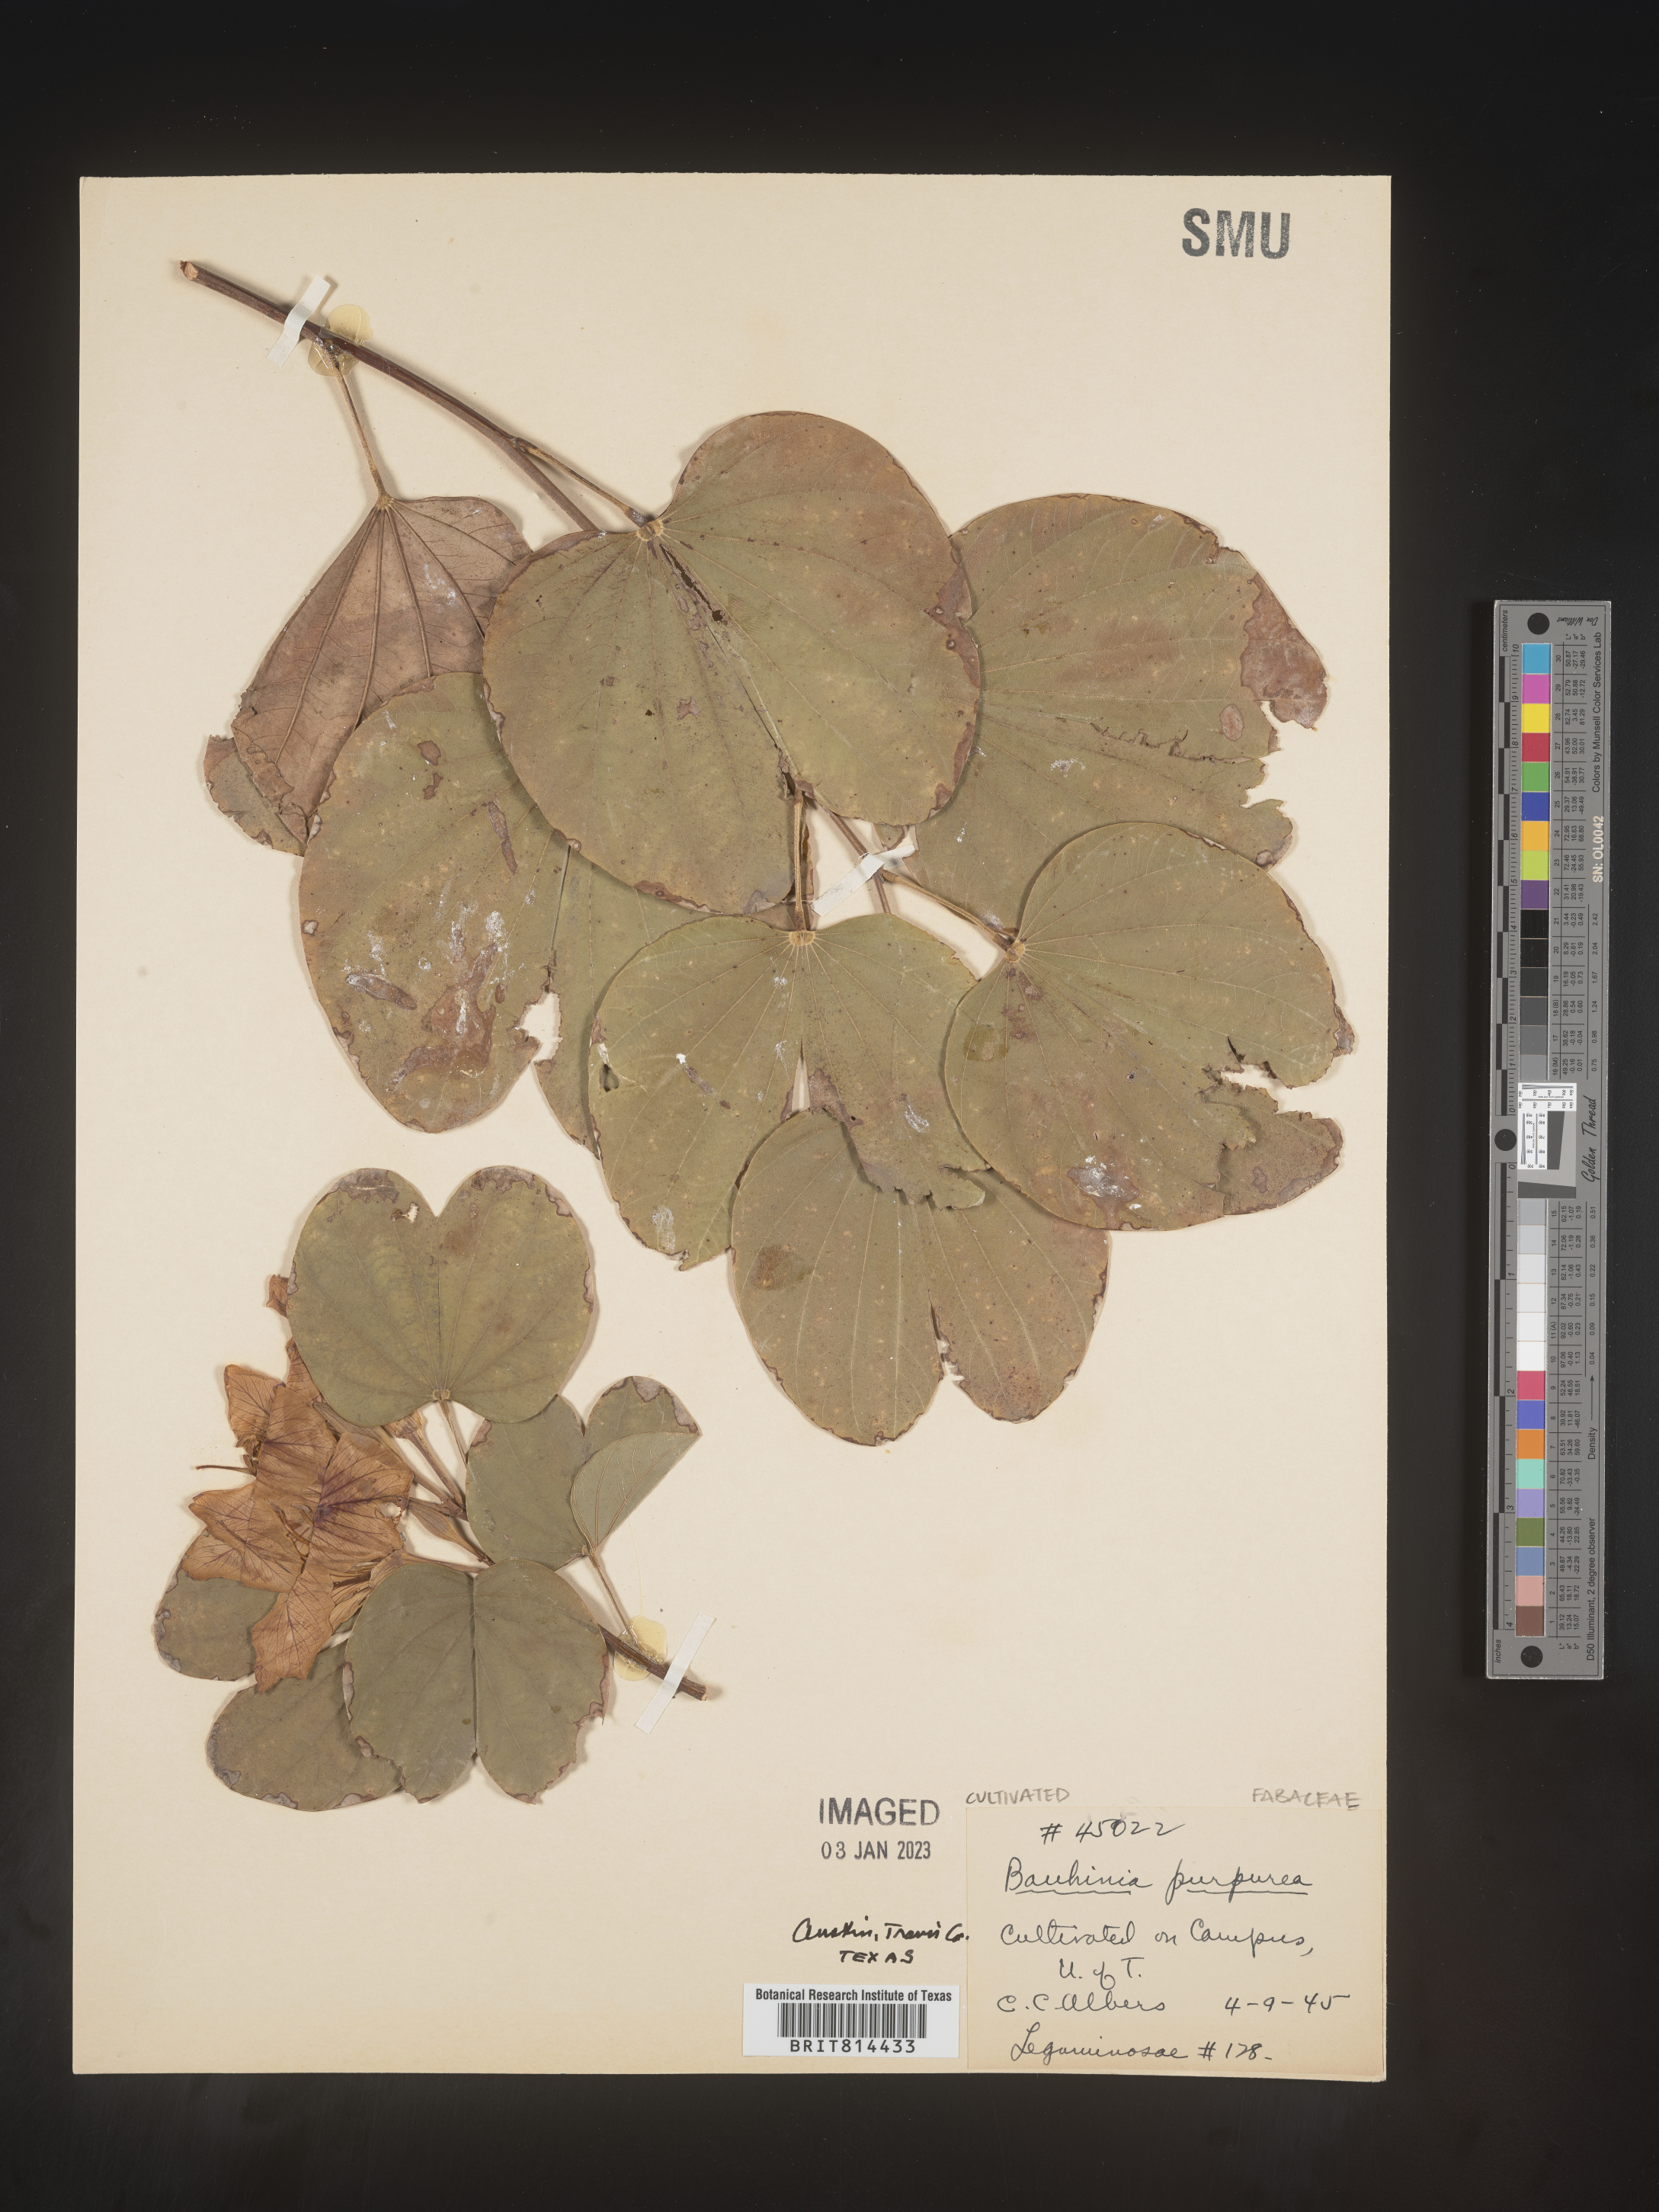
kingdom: Plantae
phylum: Tracheophyta
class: Magnoliopsida
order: Fabales
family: Fabaceae
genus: Bauhinia
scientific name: Bauhinia
